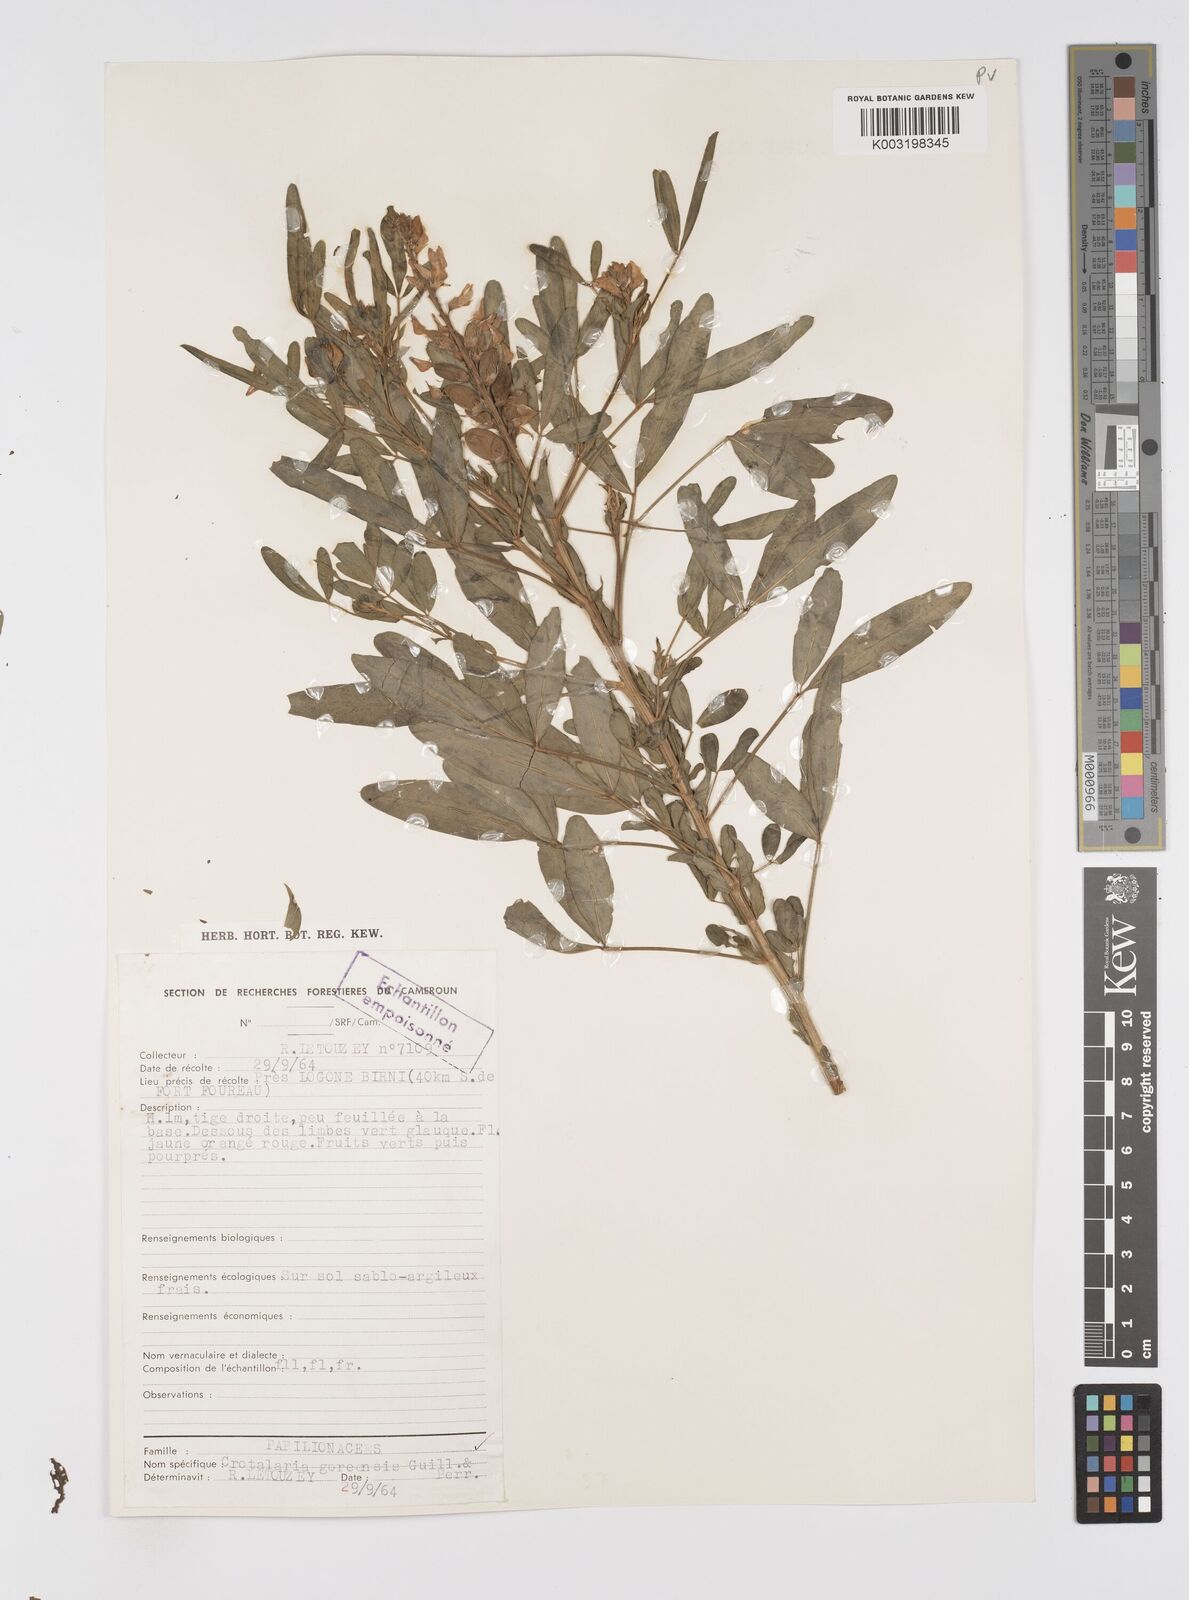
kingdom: Plantae
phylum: Tracheophyta
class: Magnoliopsida
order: Fabales
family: Fabaceae
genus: Crotalaria
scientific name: Crotalaria goreensis
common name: Gambia-pea
